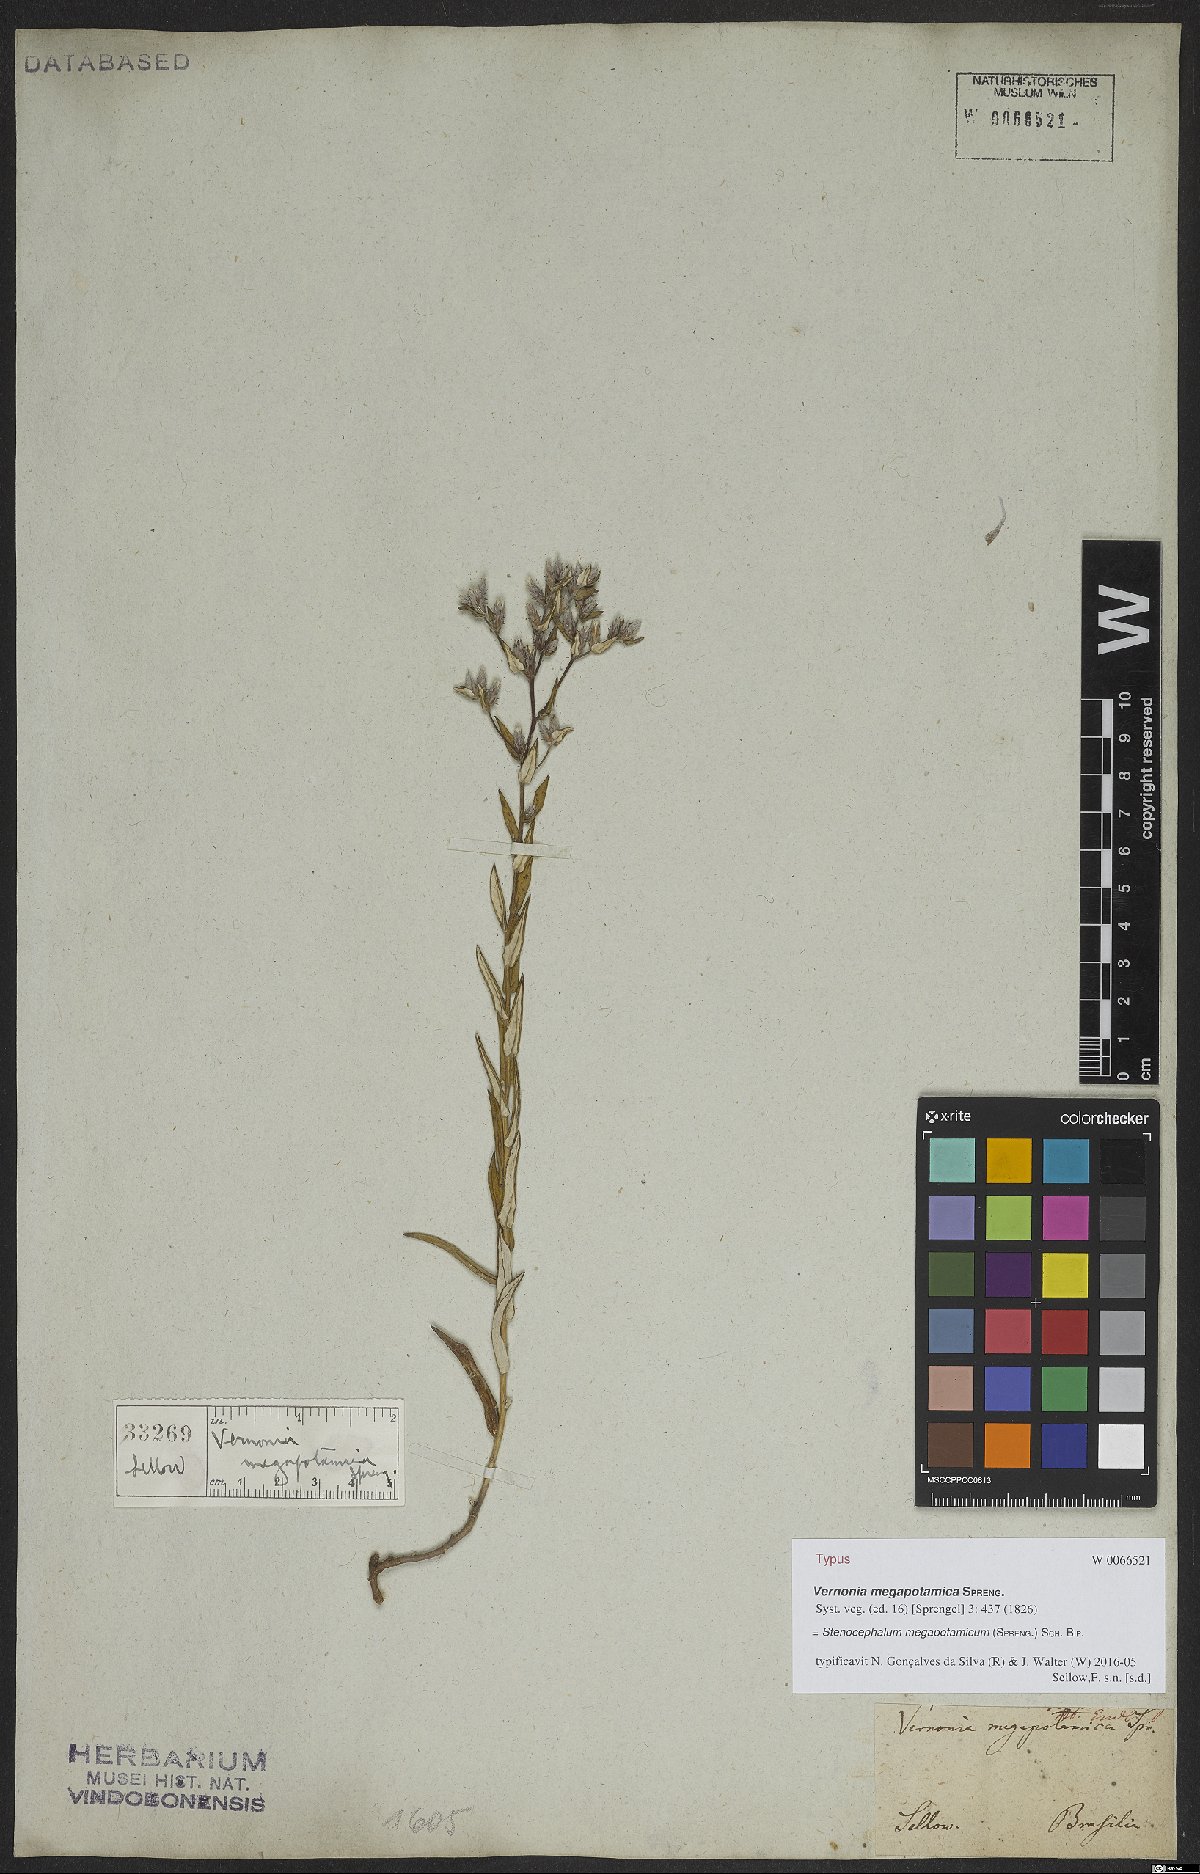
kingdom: Plantae
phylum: Tracheophyta
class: Magnoliopsida
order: Asterales
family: Asteraceae
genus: Stenocephalum
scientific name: Stenocephalum megapotamicum
